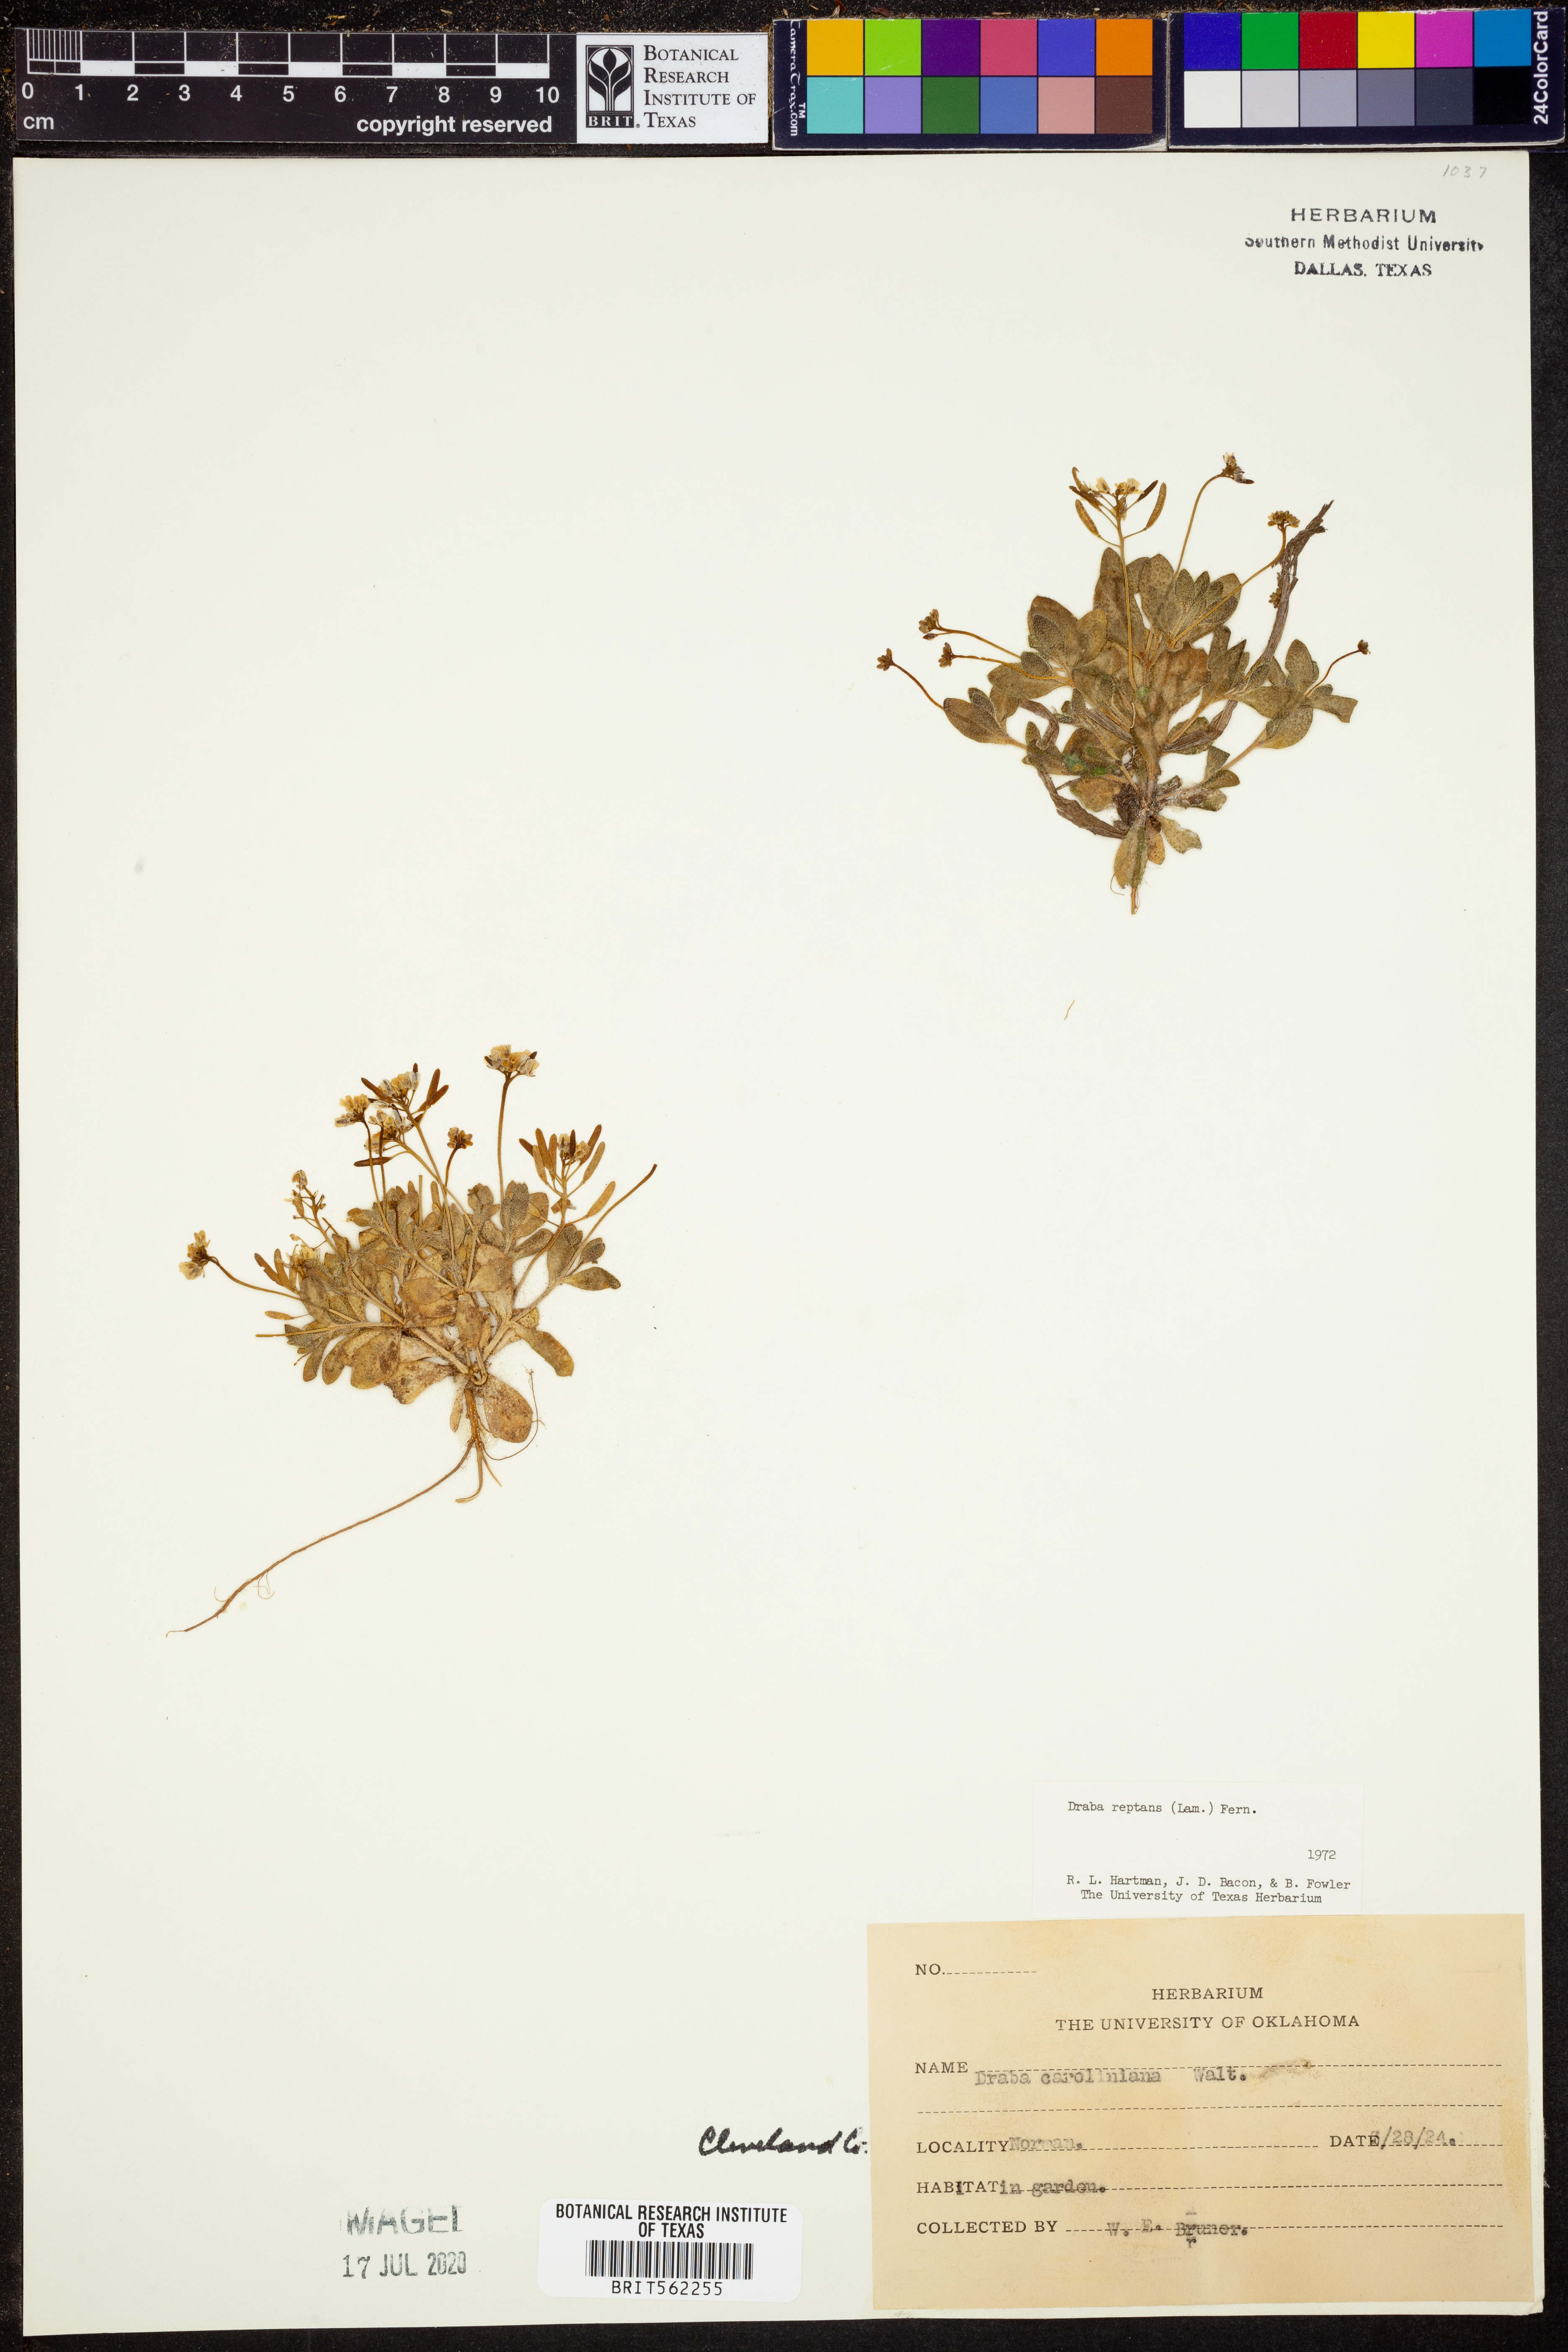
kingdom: Plantae
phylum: Tracheophyta
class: Magnoliopsida
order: Brassicales
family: Brassicaceae
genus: Tomostima
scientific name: Tomostima reptans
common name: Carolina draba
